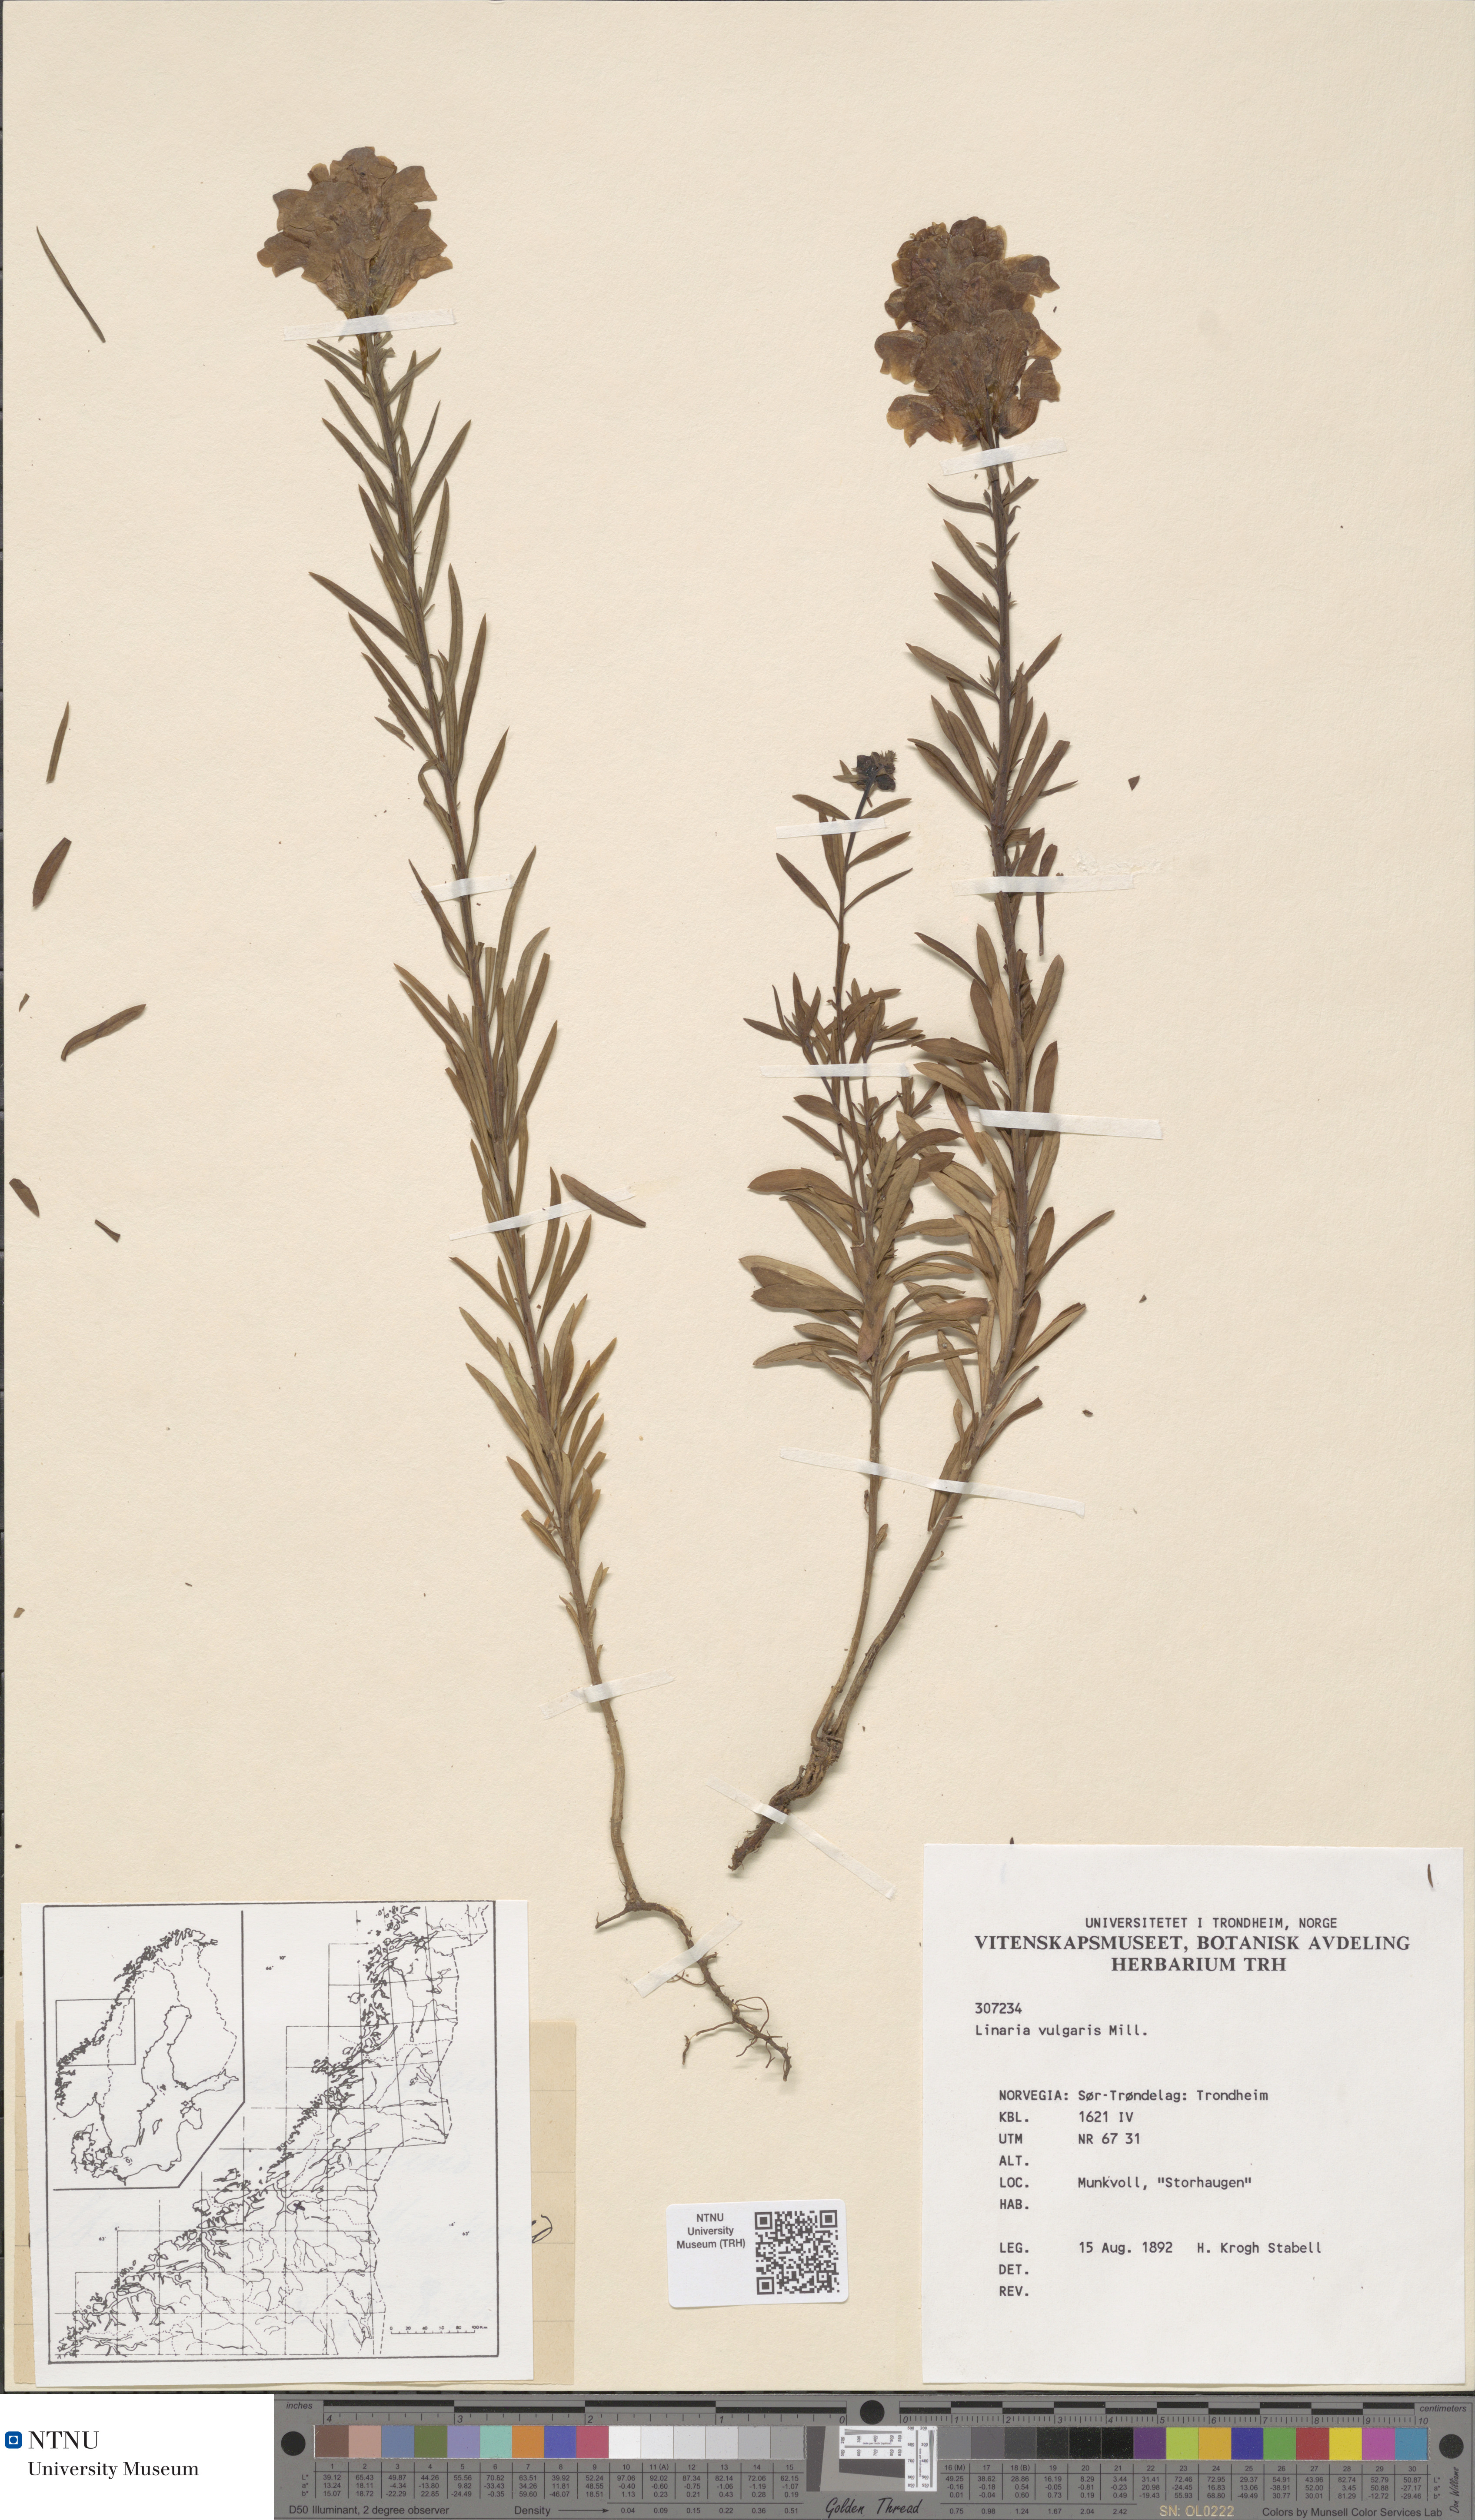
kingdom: Plantae
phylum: Tracheophyta
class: Magnoliopsida
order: Lamiales
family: Plantaginaceae
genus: Linaria
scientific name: Linaria vulgaris
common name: Butter and eggs
